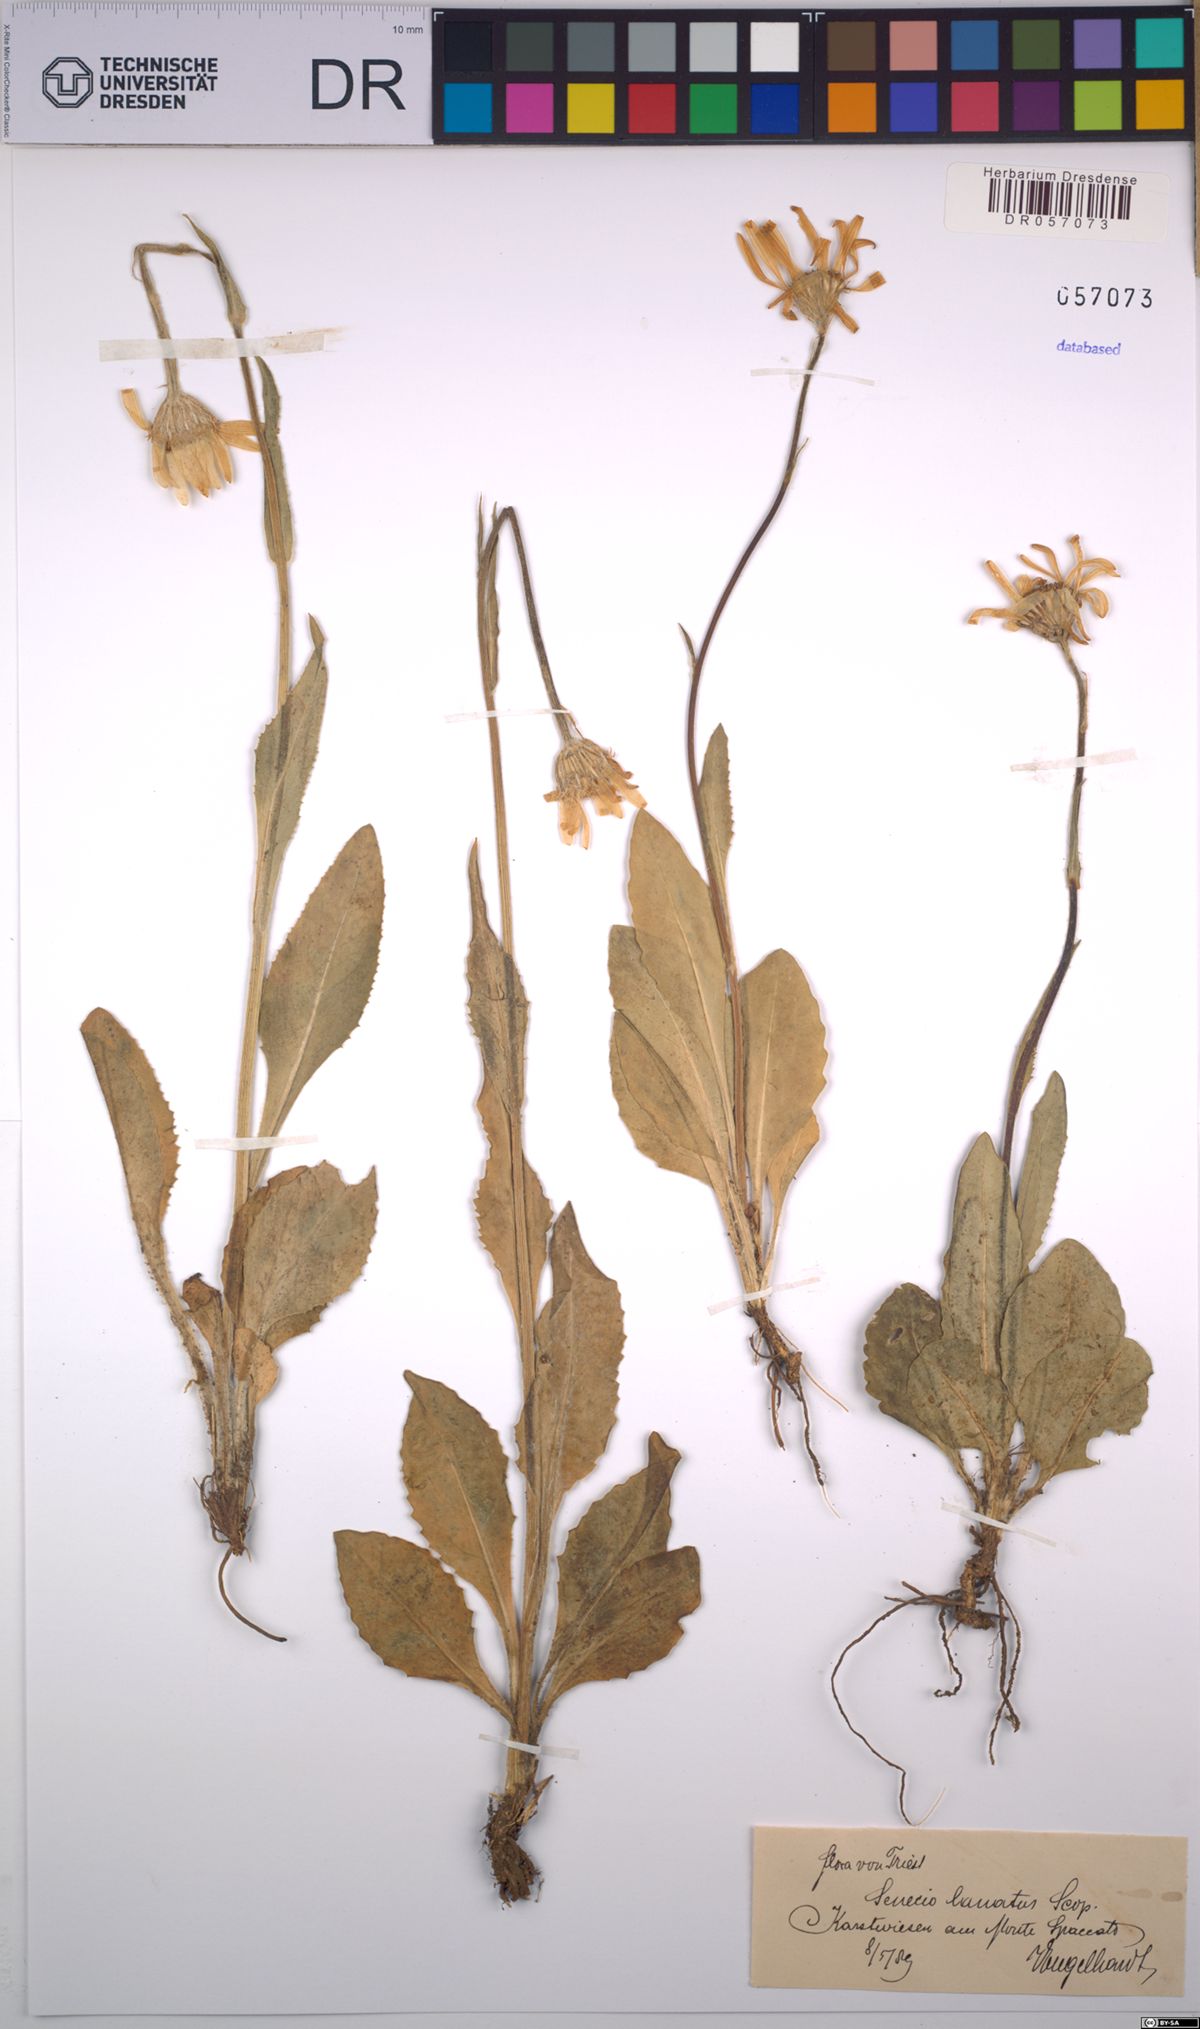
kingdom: Plantae
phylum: Tracheophyta
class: Magnoliopsida
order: Asterales
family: Asteraceae
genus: Senecio
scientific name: Senecio scopolii
